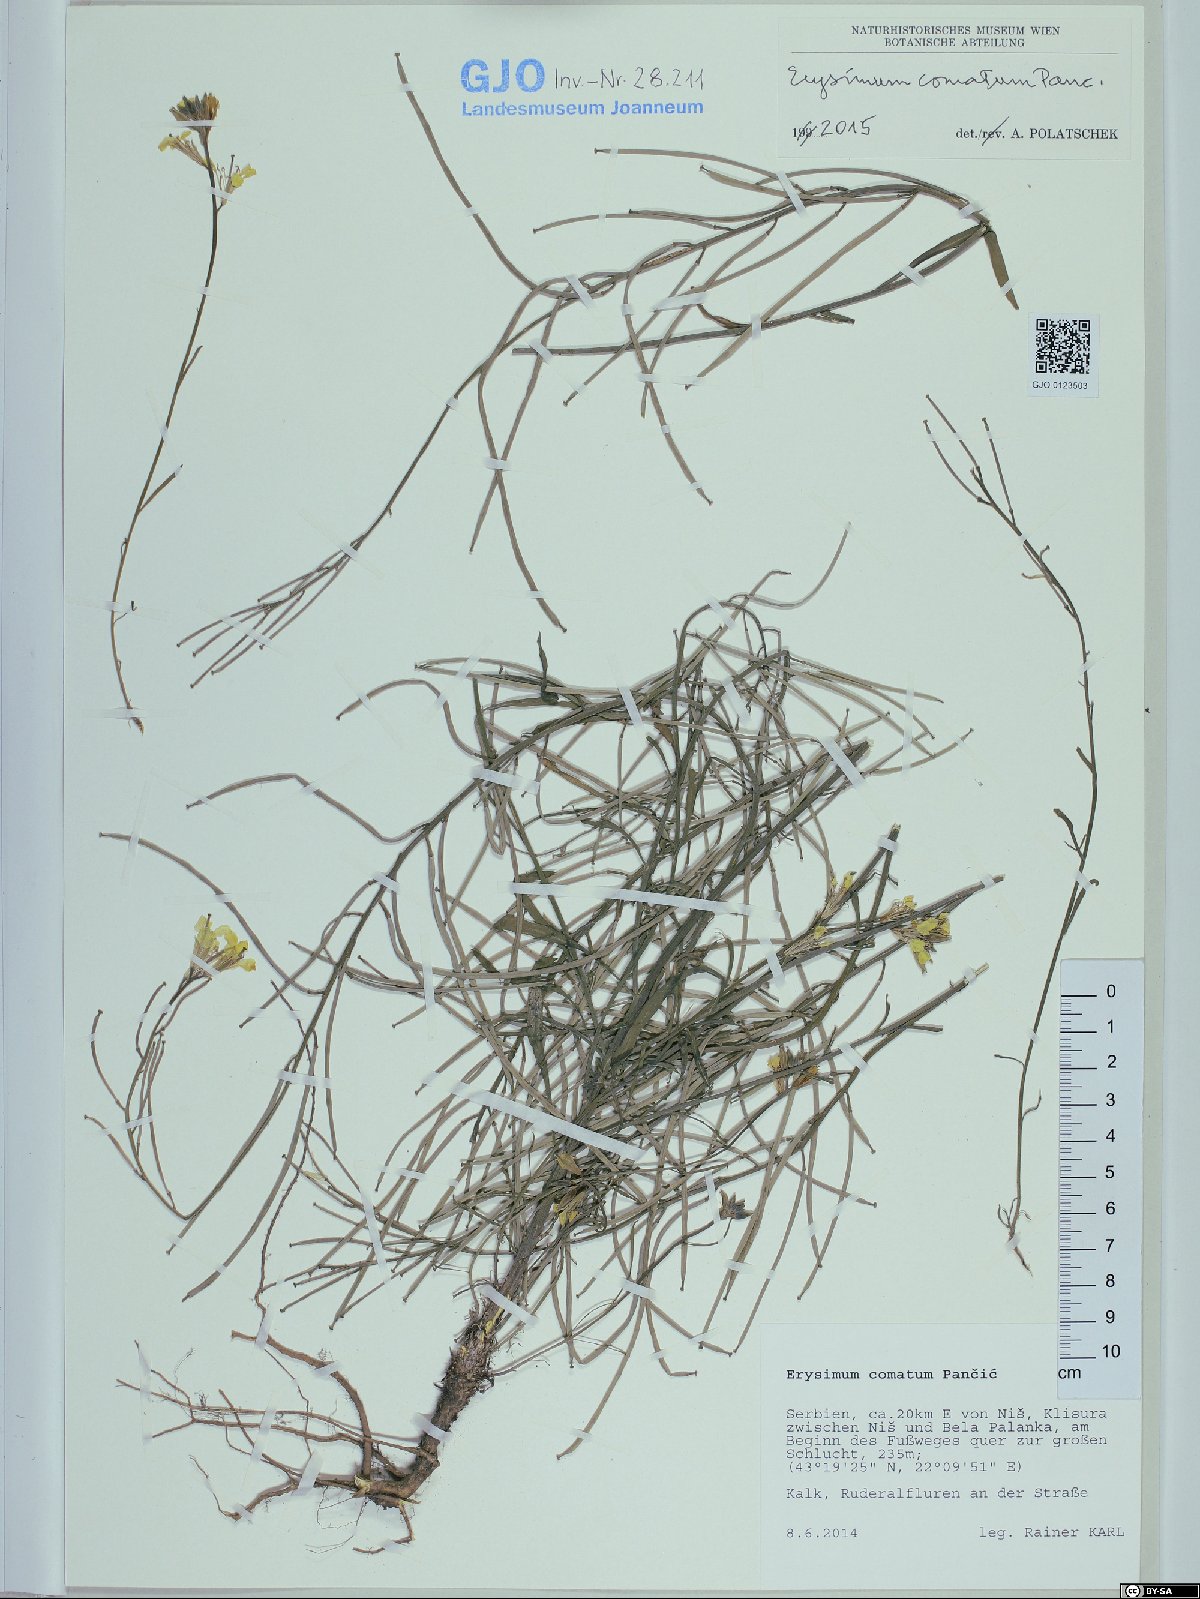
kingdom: Plantae
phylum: Tracheophyta
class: Magnoliopsida
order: Brassicales
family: Brassicaceae
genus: Erysimum
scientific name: Erysimum comatum
